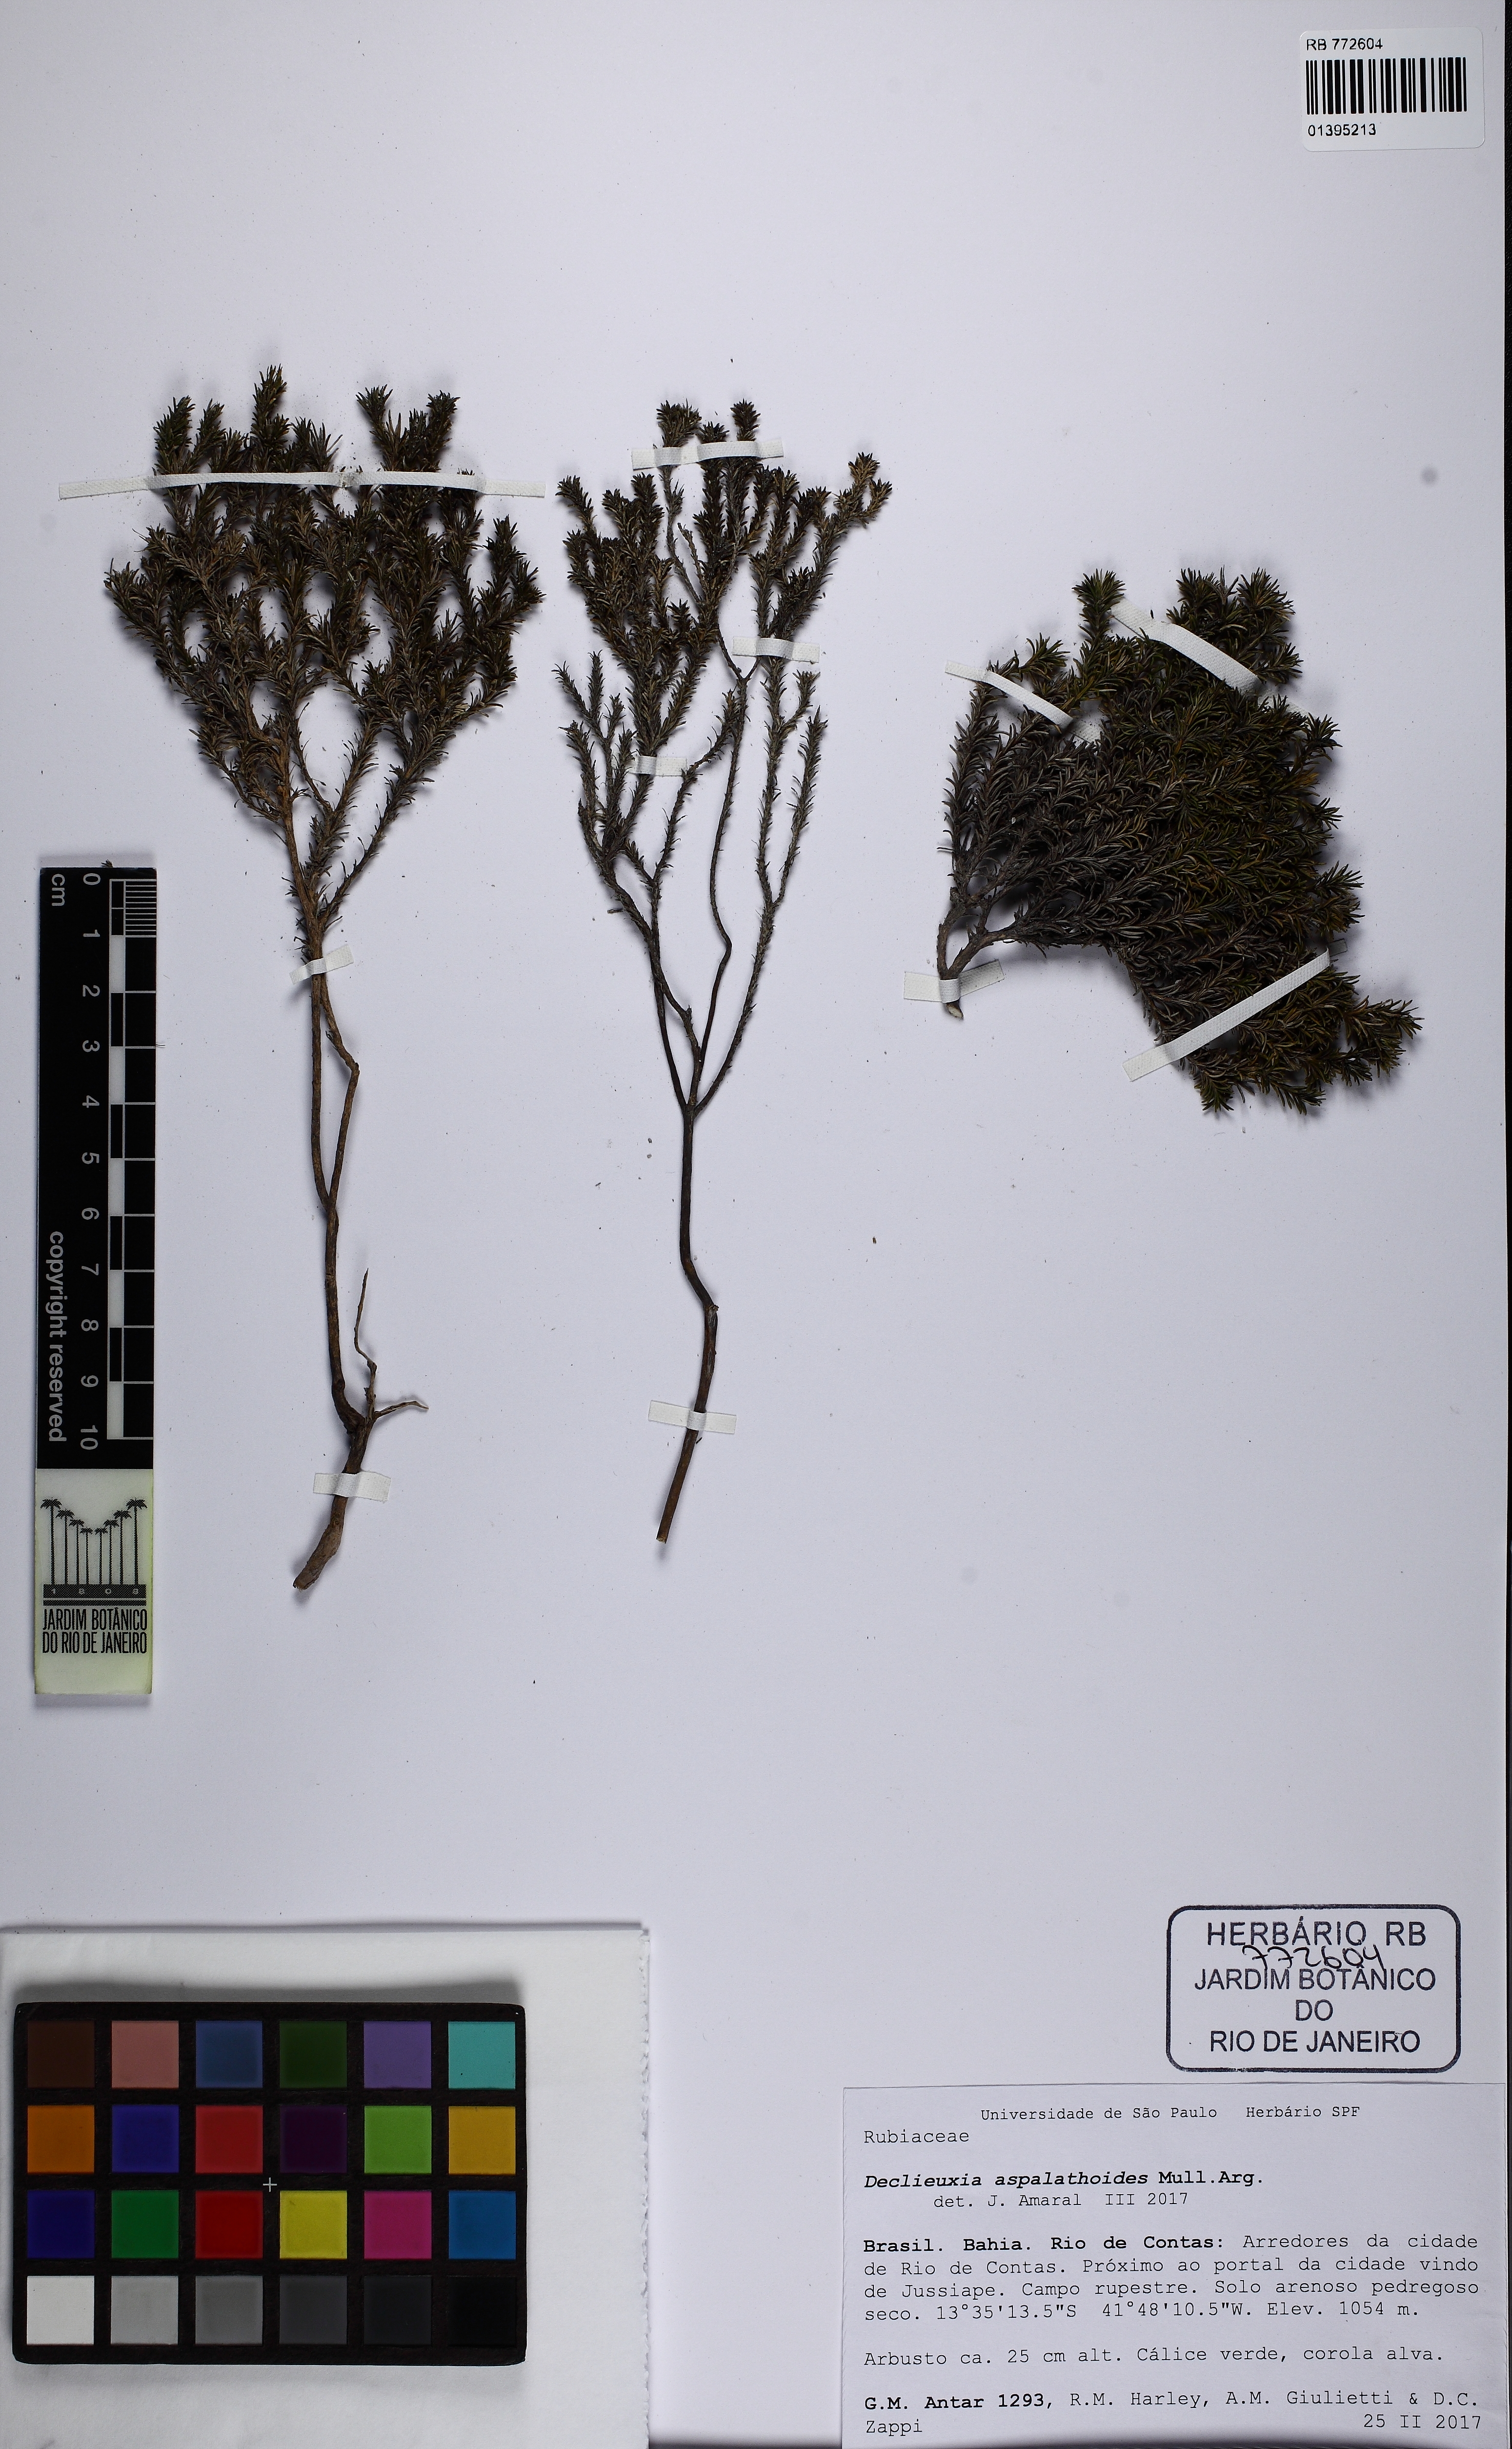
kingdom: Plantae
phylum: Tracheophyta
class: Magnoliopsida
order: Gentianales
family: Rubiaceae
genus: Declieuxia
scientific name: Declieuxia aspalathoides
